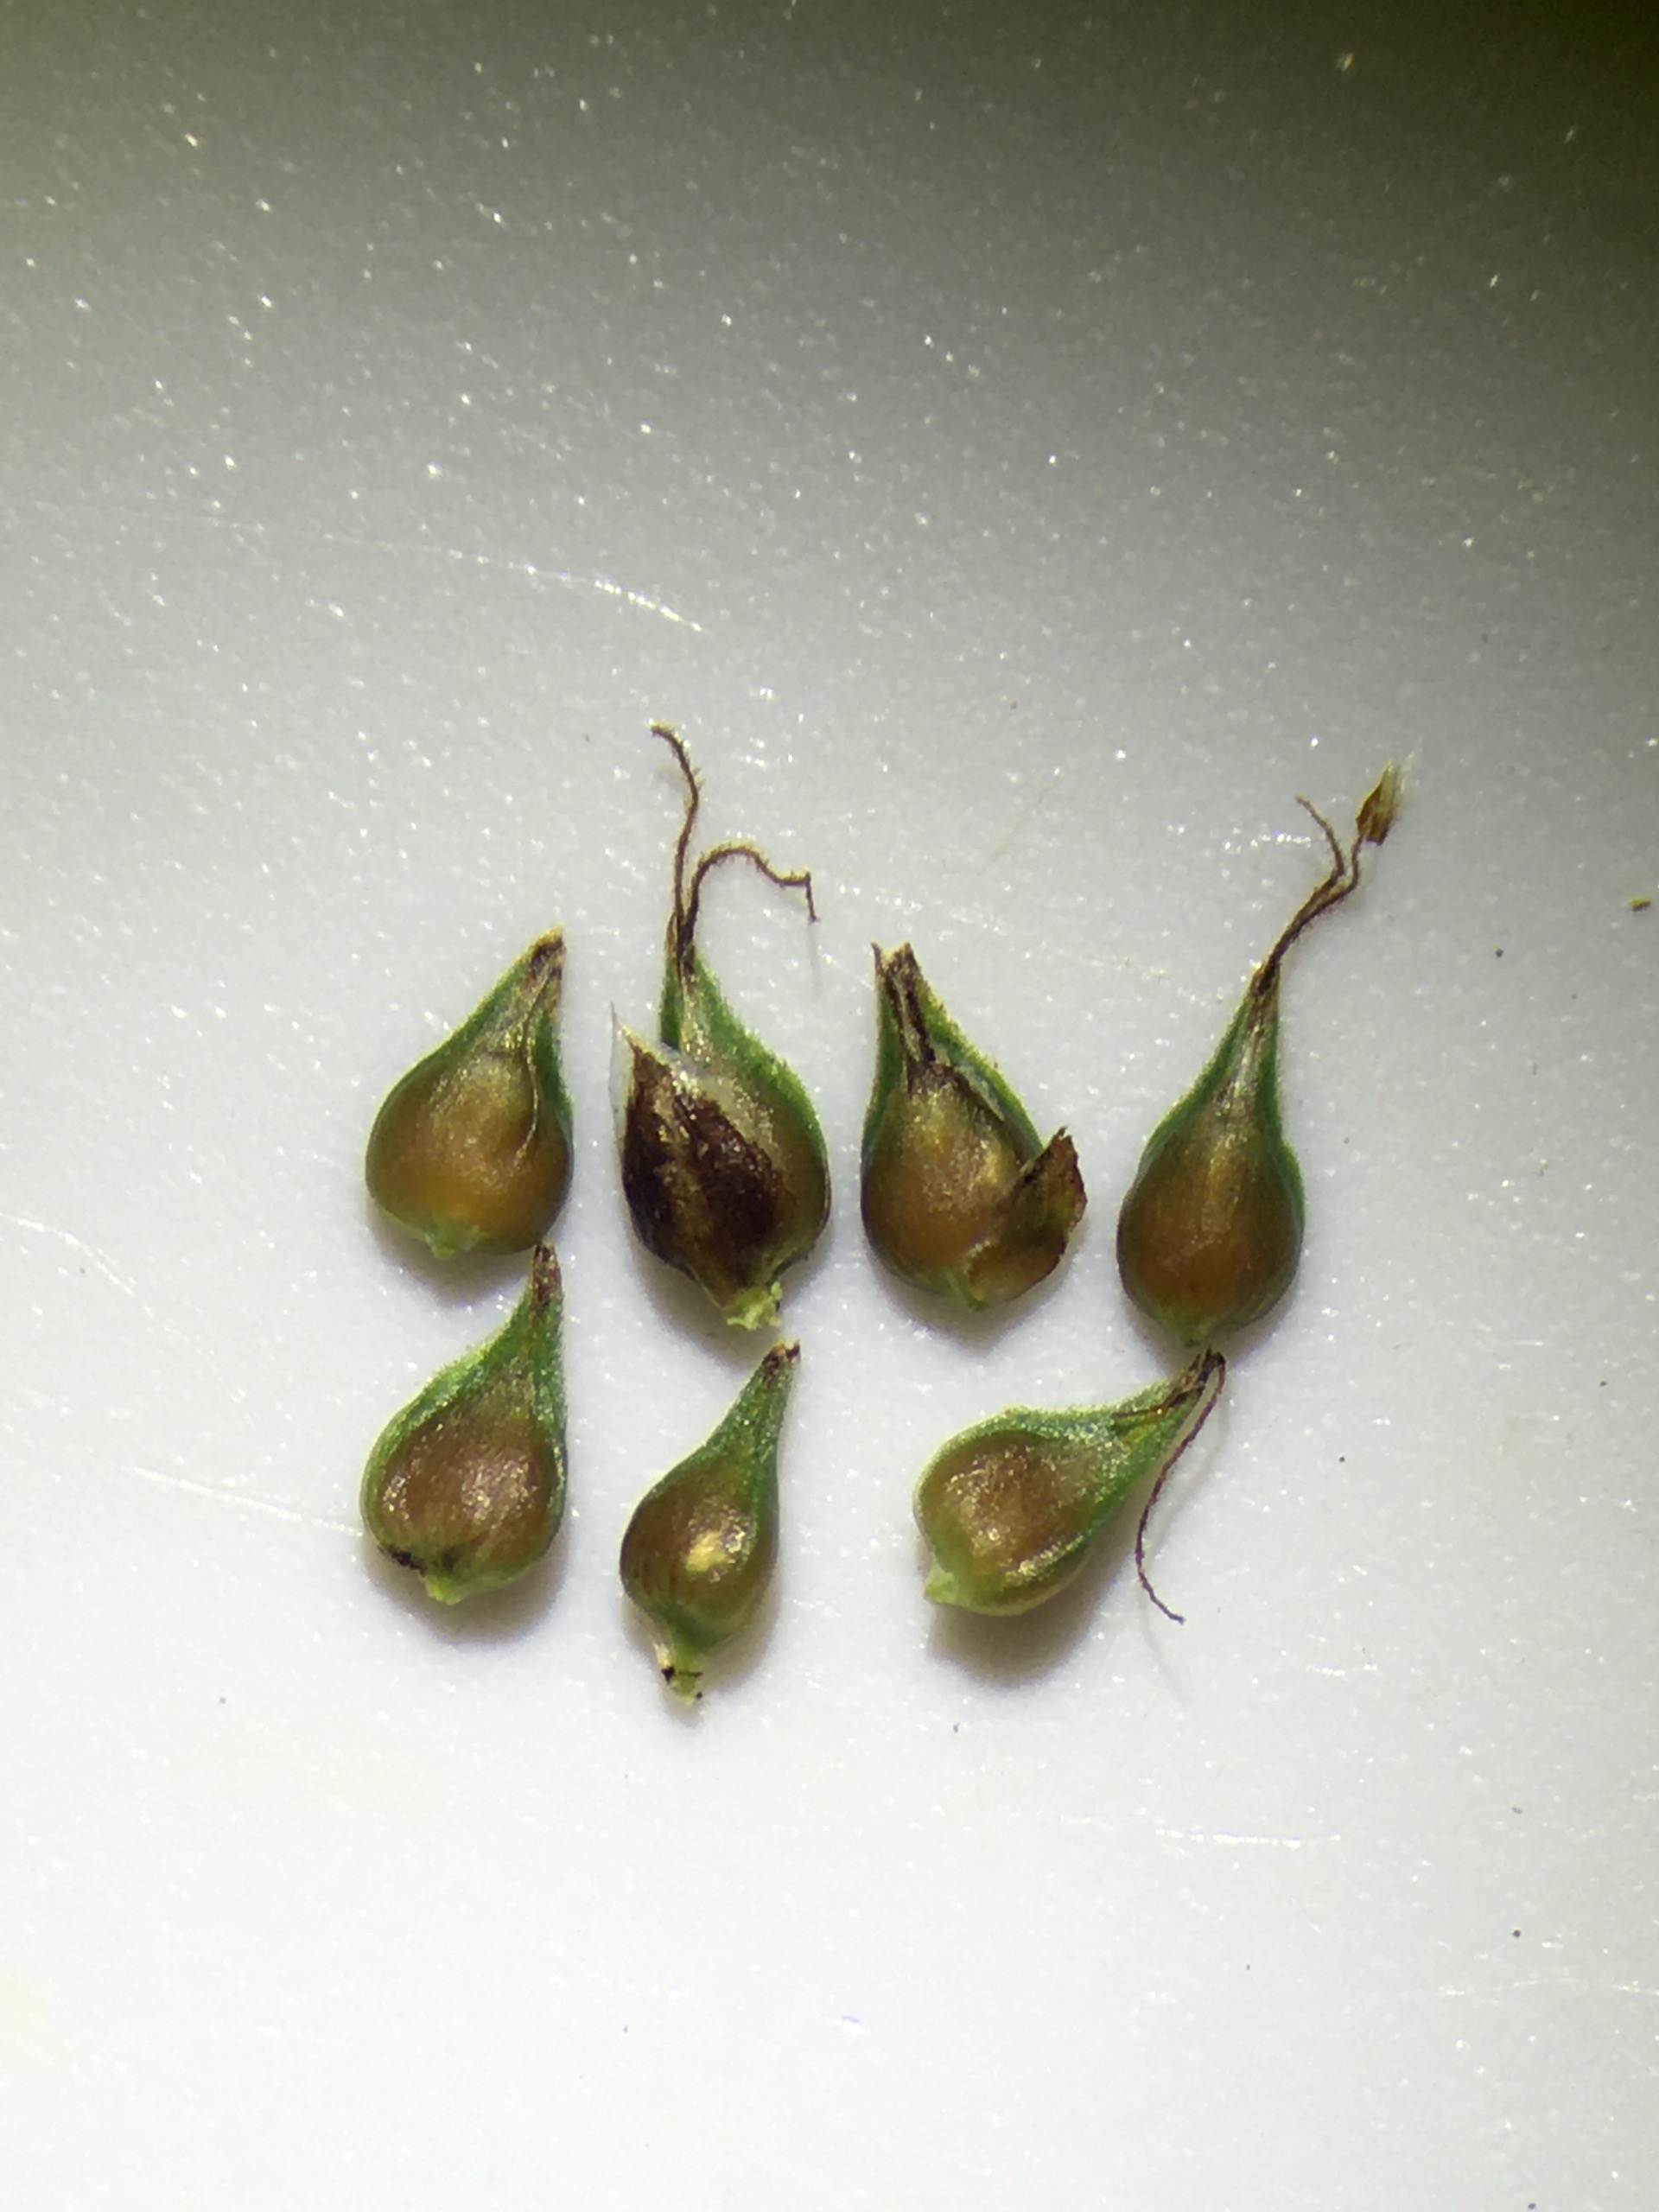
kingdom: Plantae
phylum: Tracheophyta
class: Liliopsida
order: Poales
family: Cyperaceae
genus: Carex
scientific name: Carex
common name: Langakset star × top-star
